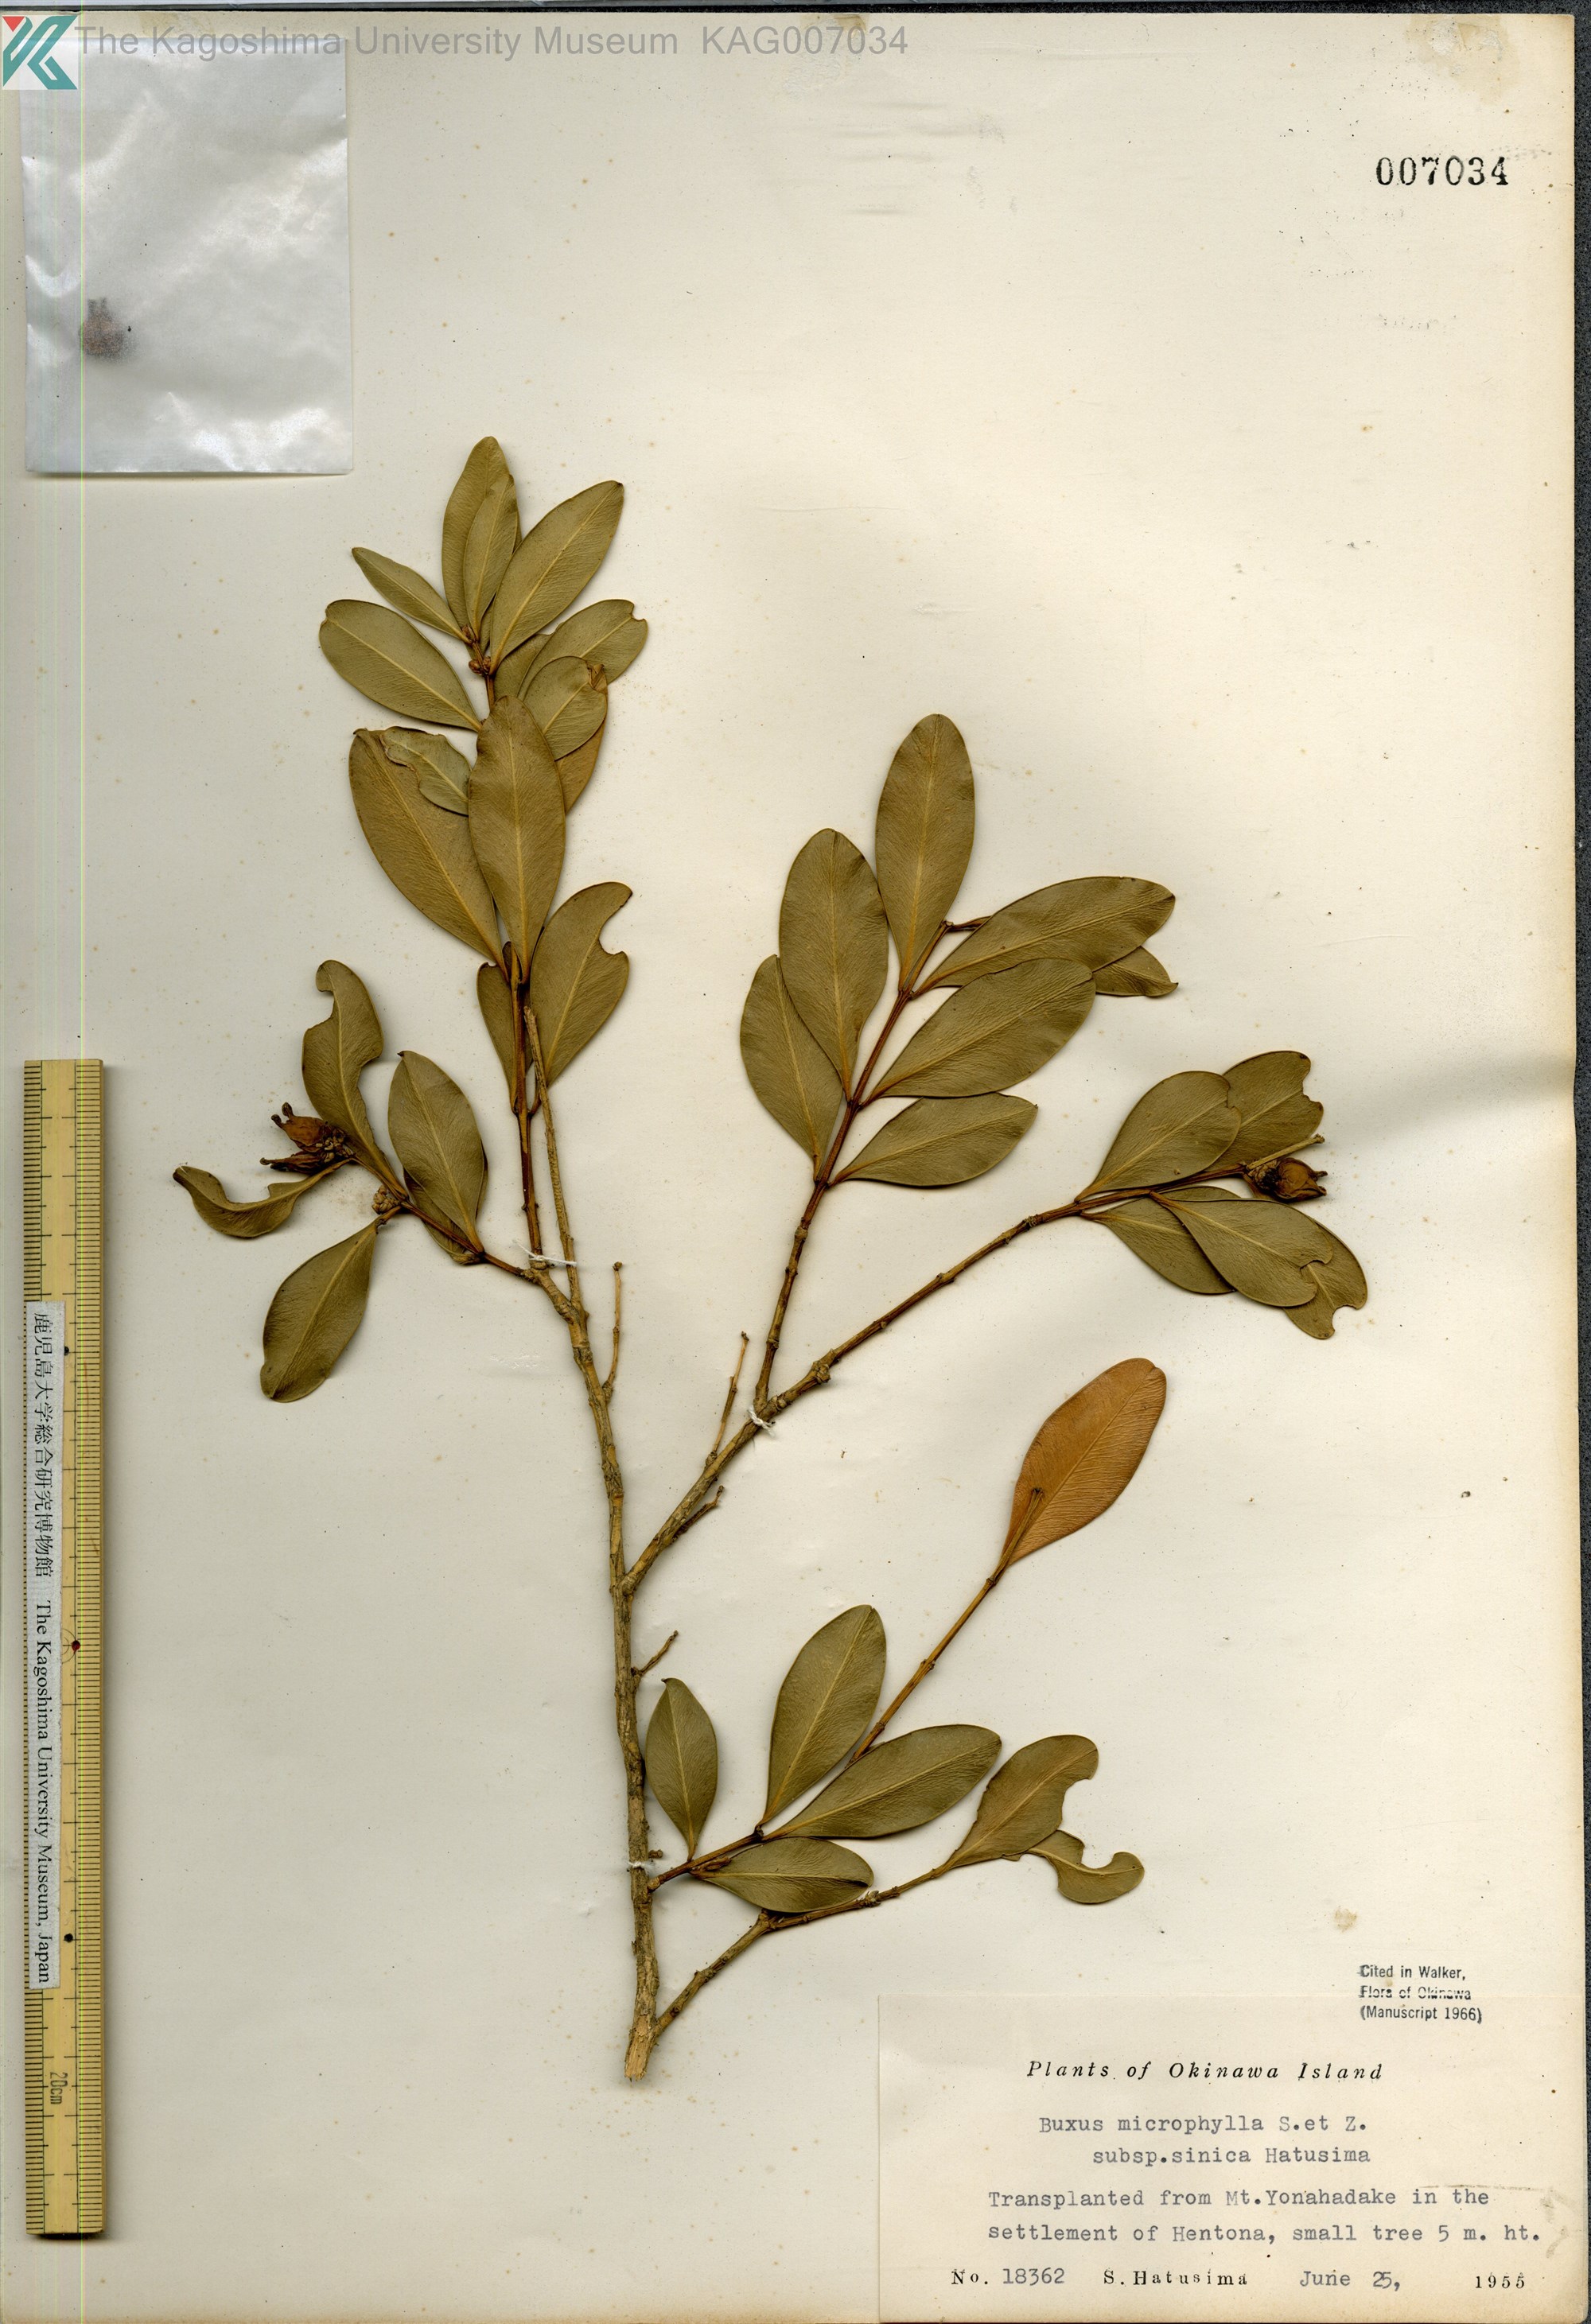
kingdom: Plantae
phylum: Tracheophyta
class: Magnoliopsida
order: Buxales
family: Buxaceae
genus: Buxus
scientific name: Buxus sinica
